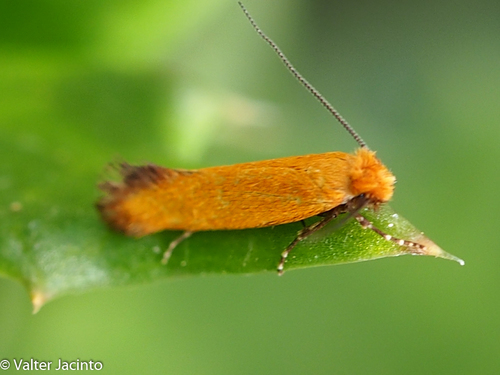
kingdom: Animalia
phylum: Arthropoda
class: Insecta
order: Lepidoptera
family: Tineidae
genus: Reisserita
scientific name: Reisserita chrysopterella
